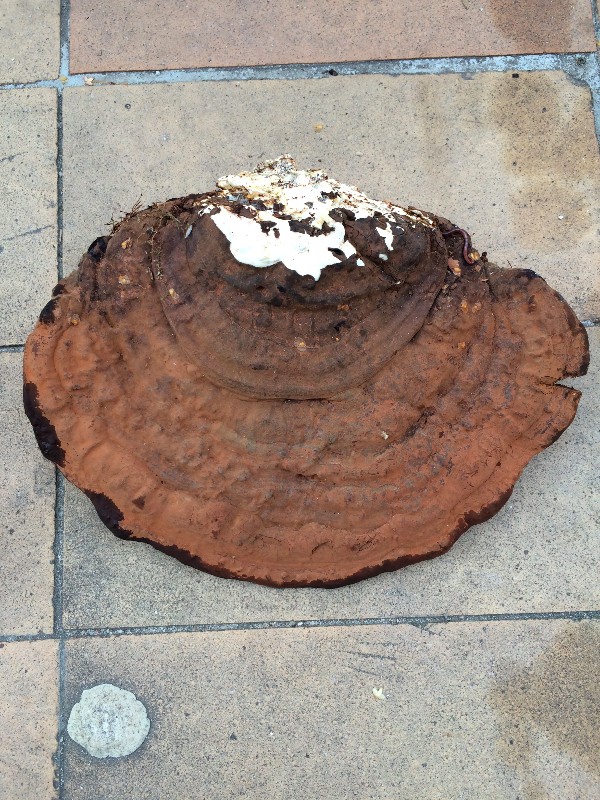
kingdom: Fungi
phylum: Basidiomycota
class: Agaricomycetes
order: Polyporales
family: Polyporaceae
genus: Ganoderma
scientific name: Ganoderma applanatum
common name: flad lakporesvamp
